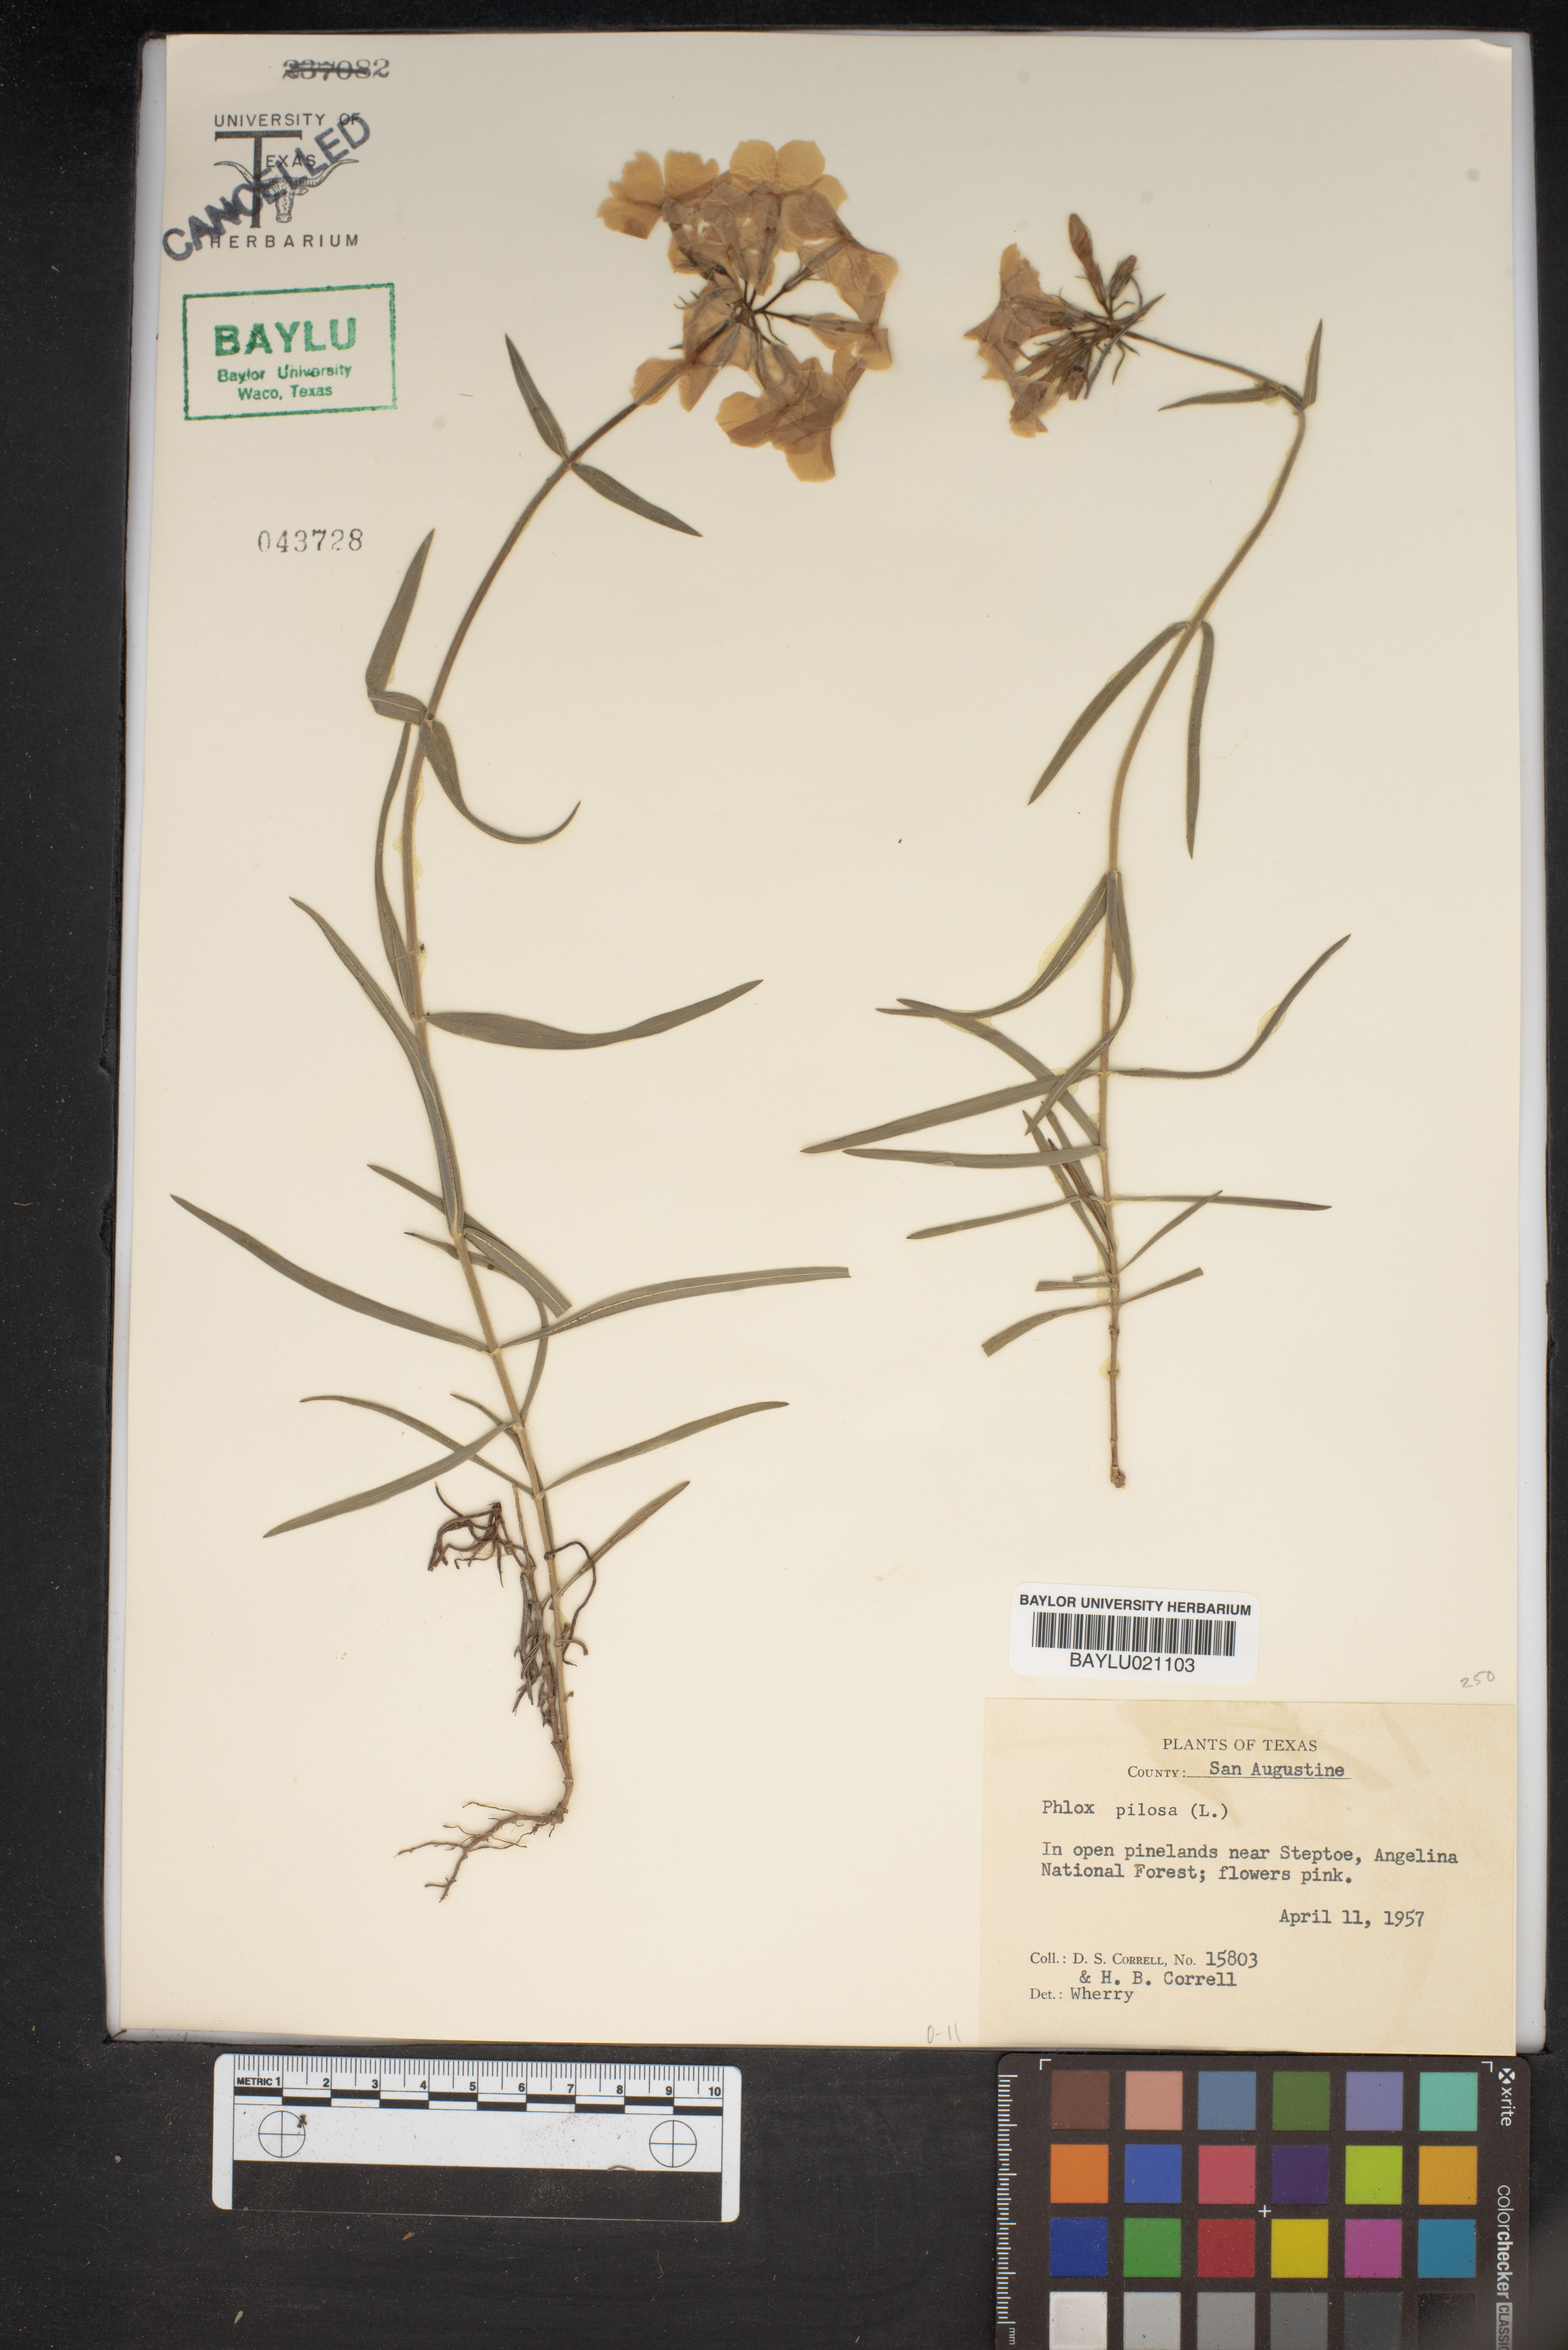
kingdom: Plantae
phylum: Tracheophyta
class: Magnoliopsida
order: Ericales
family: Polemoniaceae
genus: Phlox
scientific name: Phlox pilosa
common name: Prairie phlox
